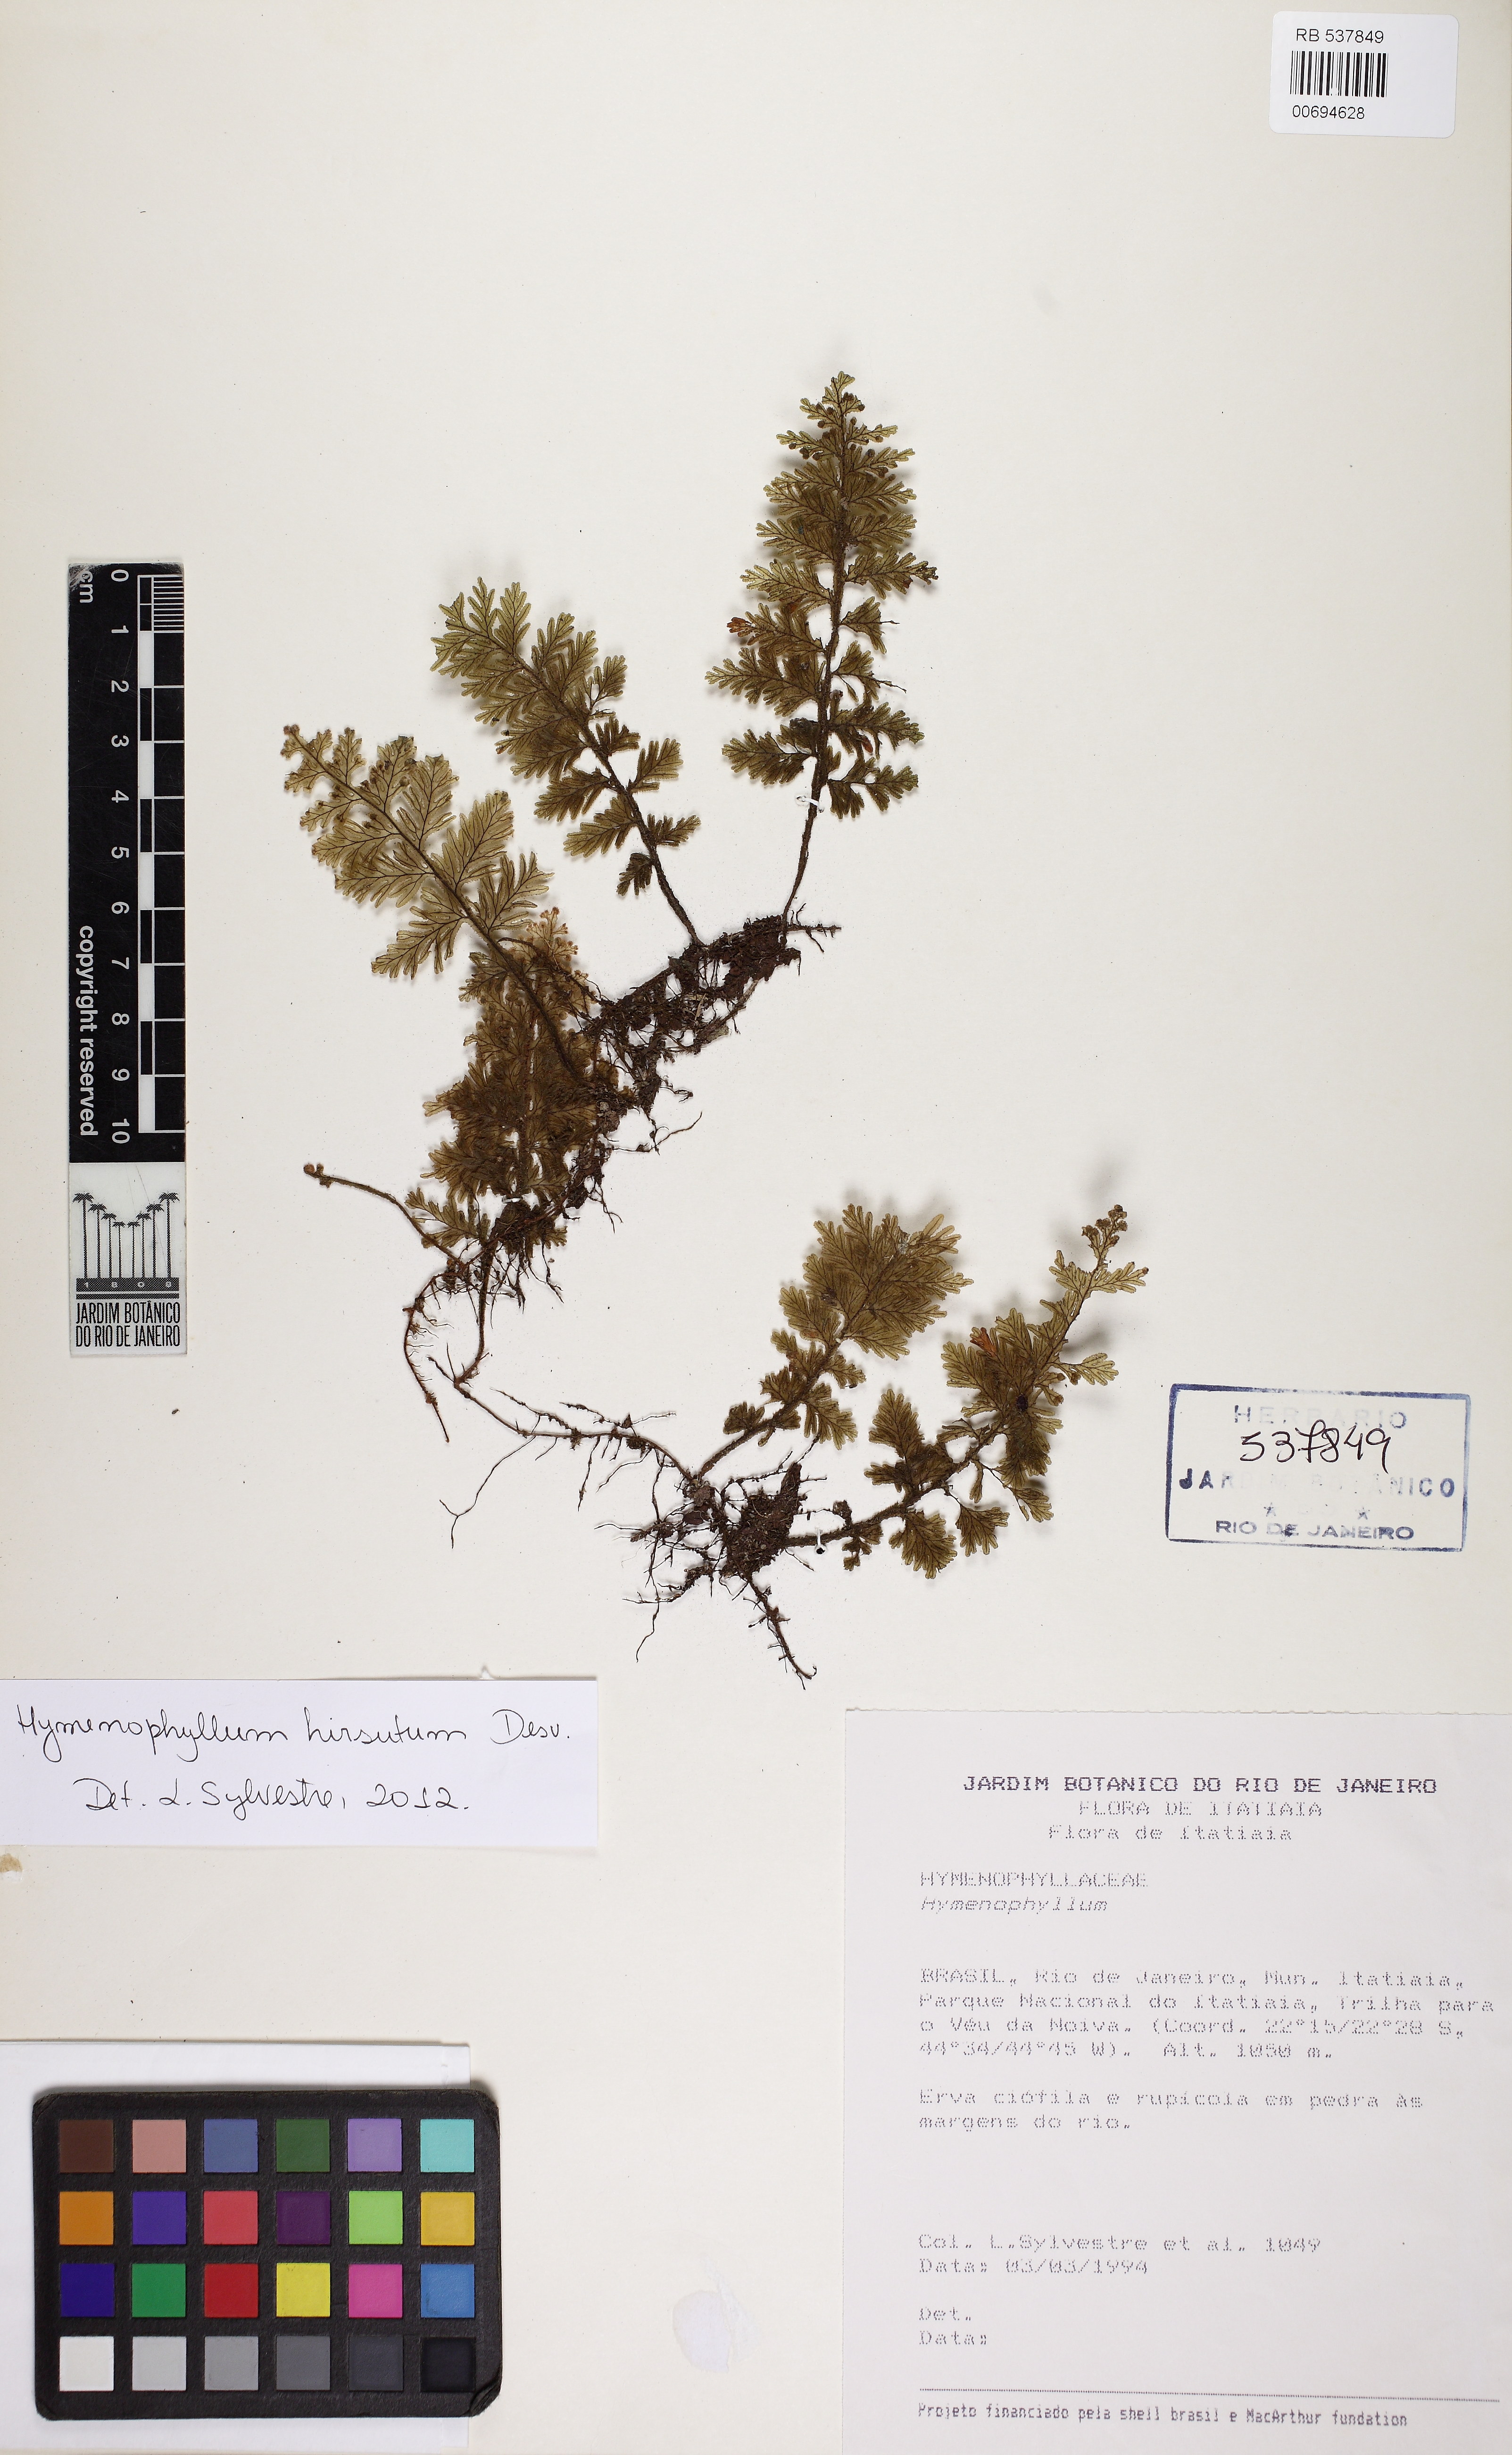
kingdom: Plantae
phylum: Tracheophyta
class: Polypodiopsida
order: Hymenophyllales
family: Hymenophyllaceae
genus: Hymenophyllum
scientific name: Hymenophyllum hirsutum
